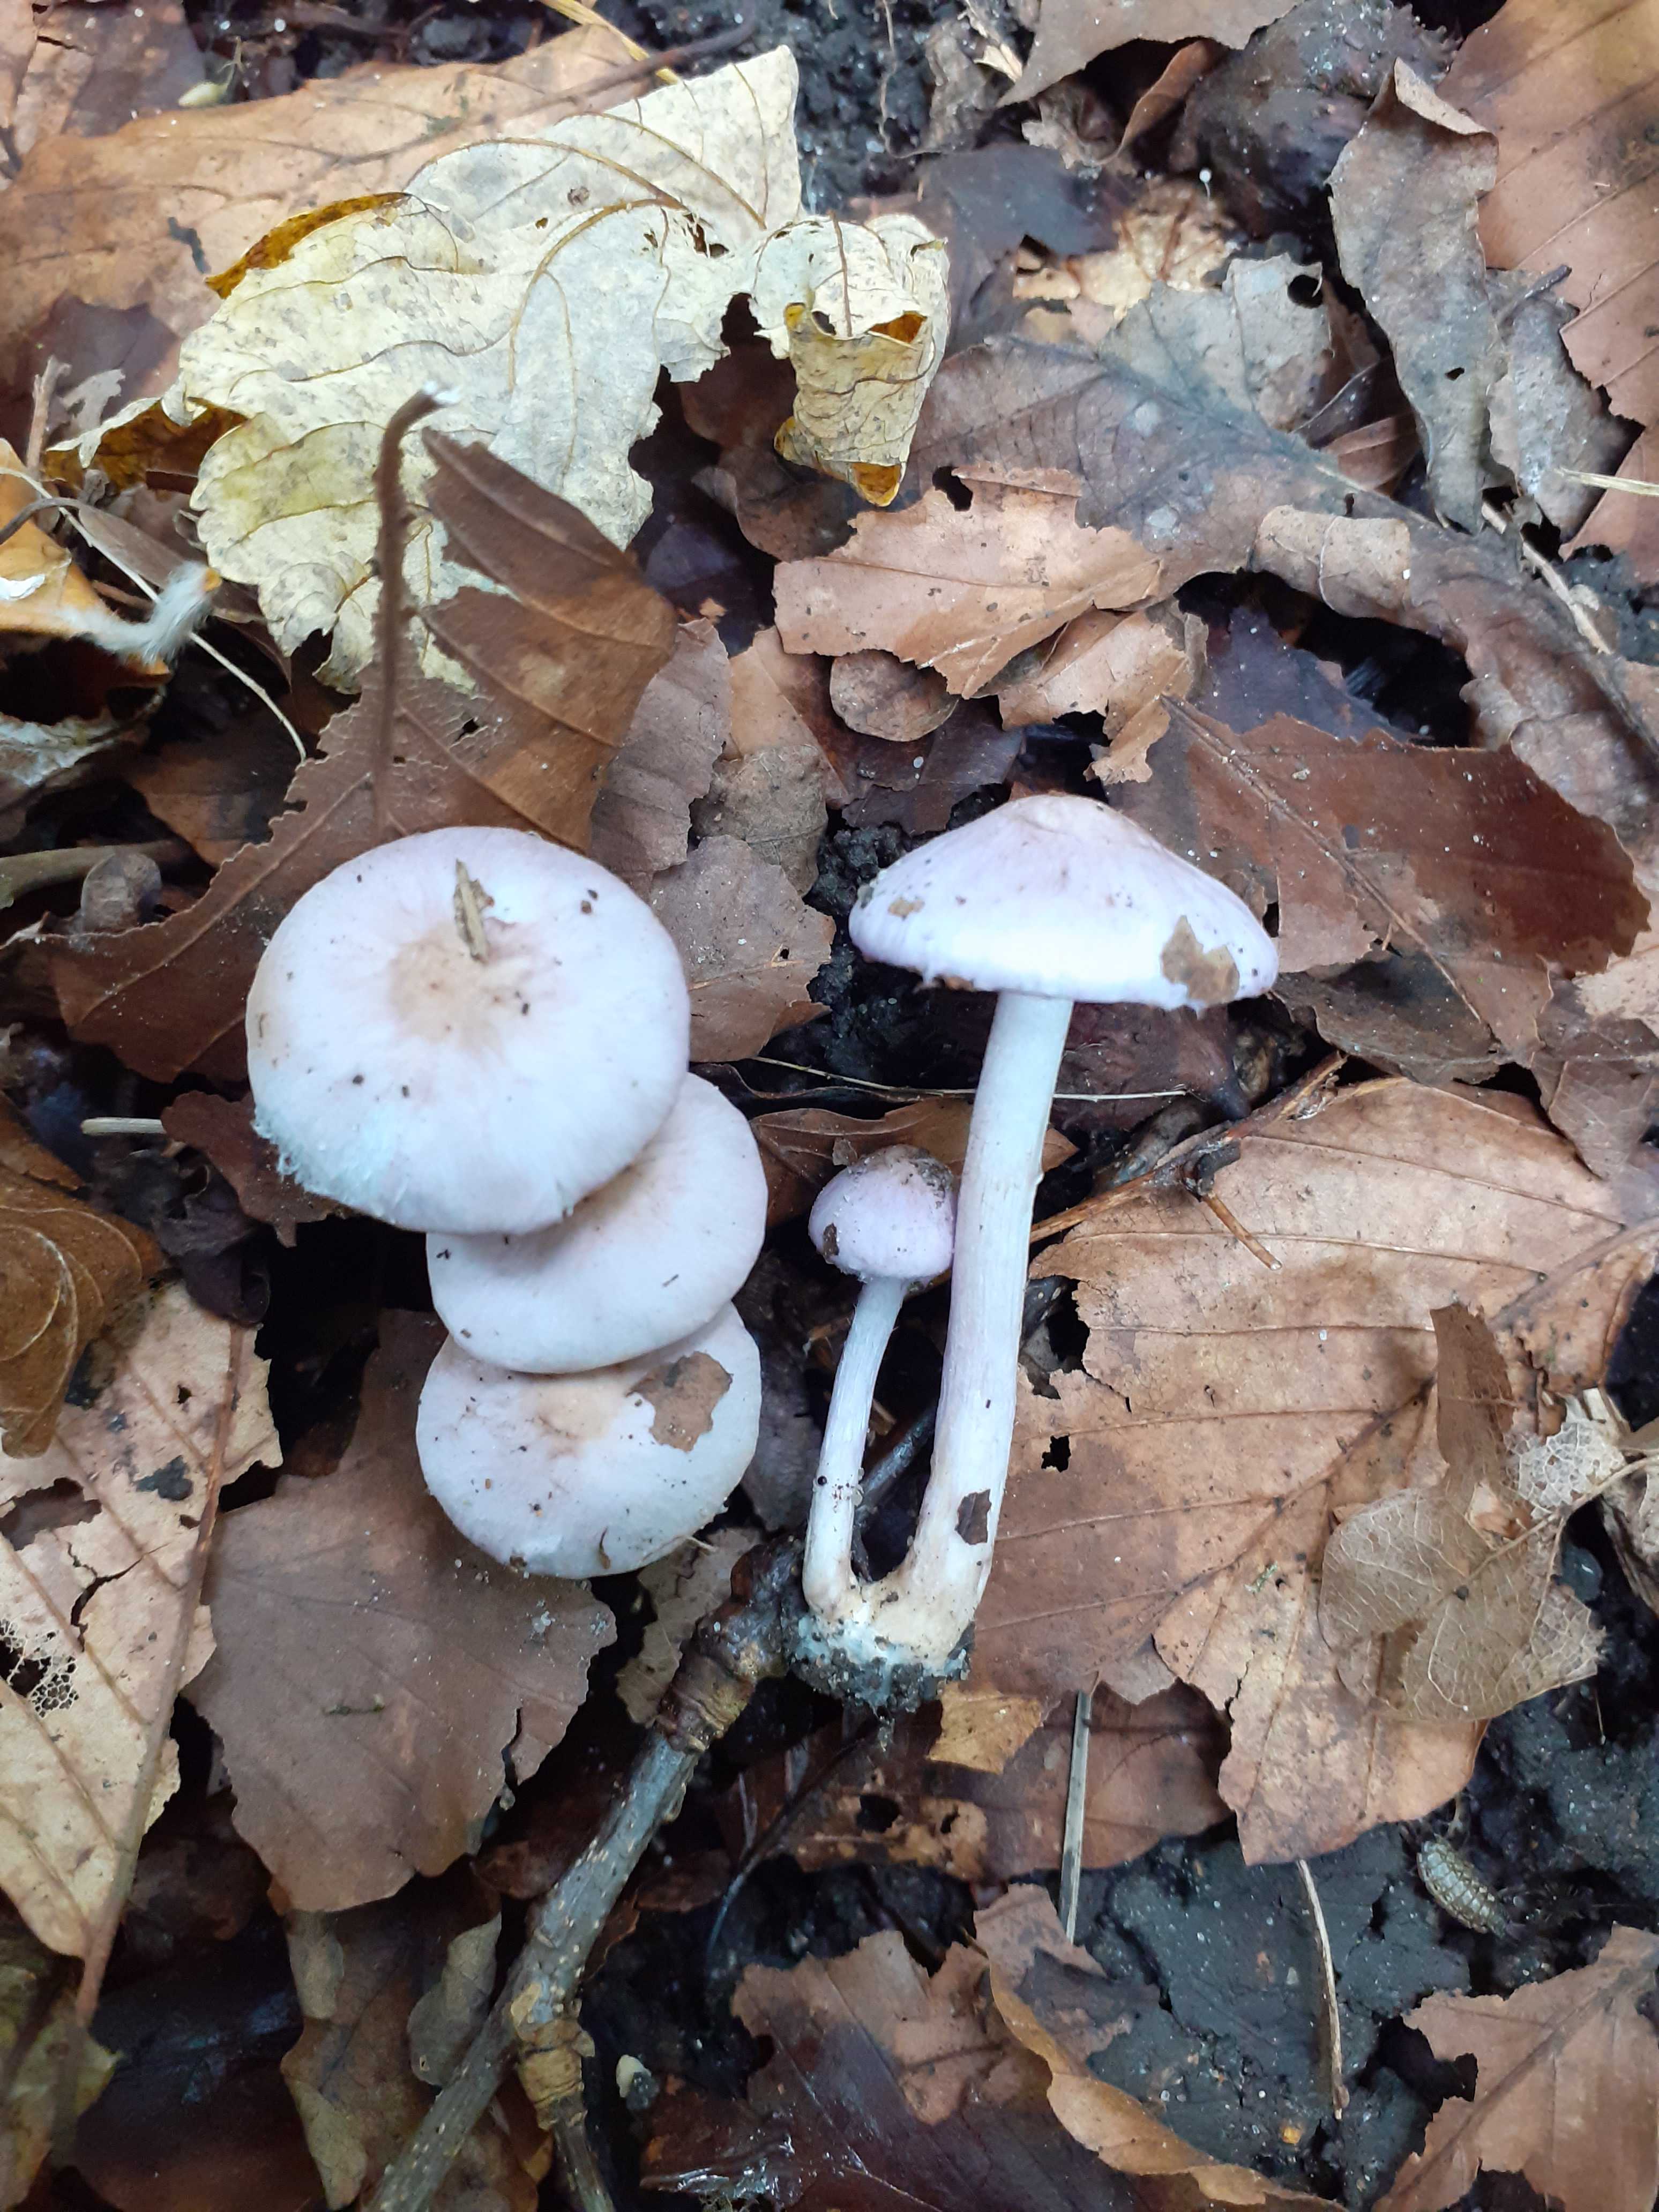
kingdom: Fungi
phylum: Basidiomycota
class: Agaricomycetes
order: Agaricales
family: Inocybaceae
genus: Inocybe
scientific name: Inocybe geophylla
